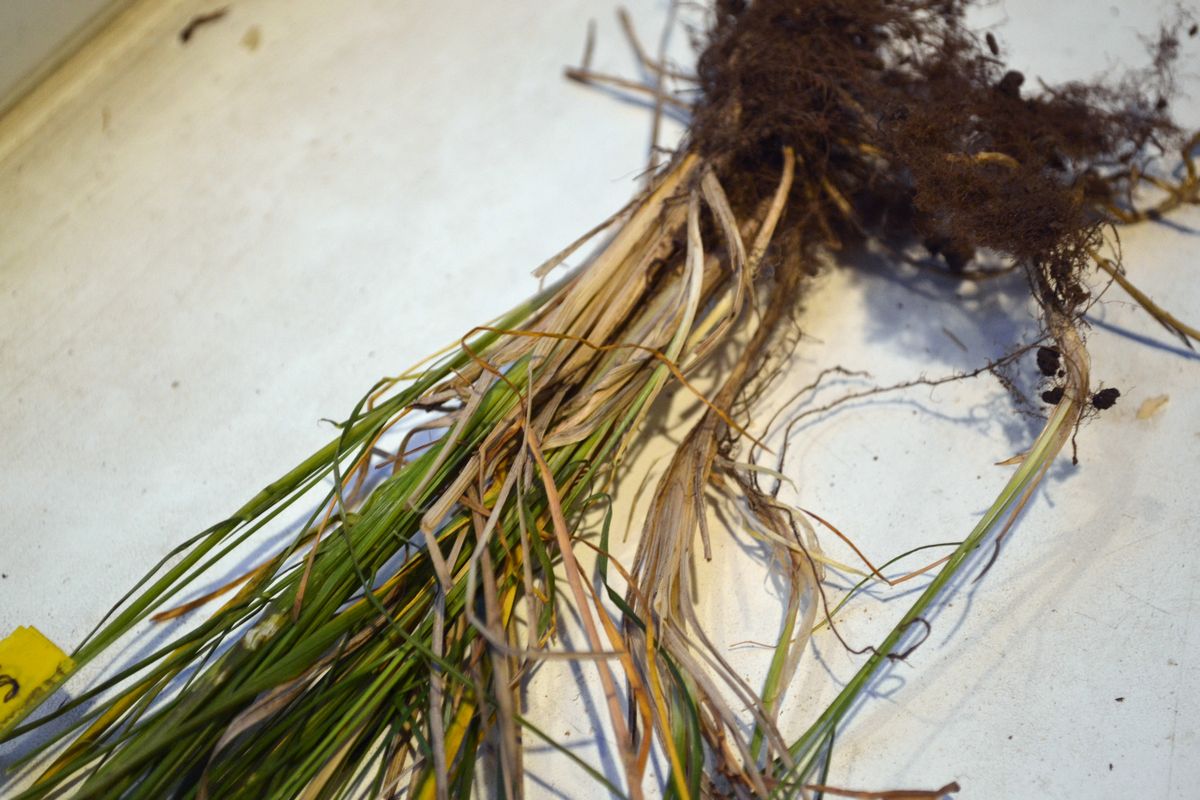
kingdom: Plantae
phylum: Tracheophyta
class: Liliopsida
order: Poales
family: Poaceae
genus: Poa
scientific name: Poa angustifolia
